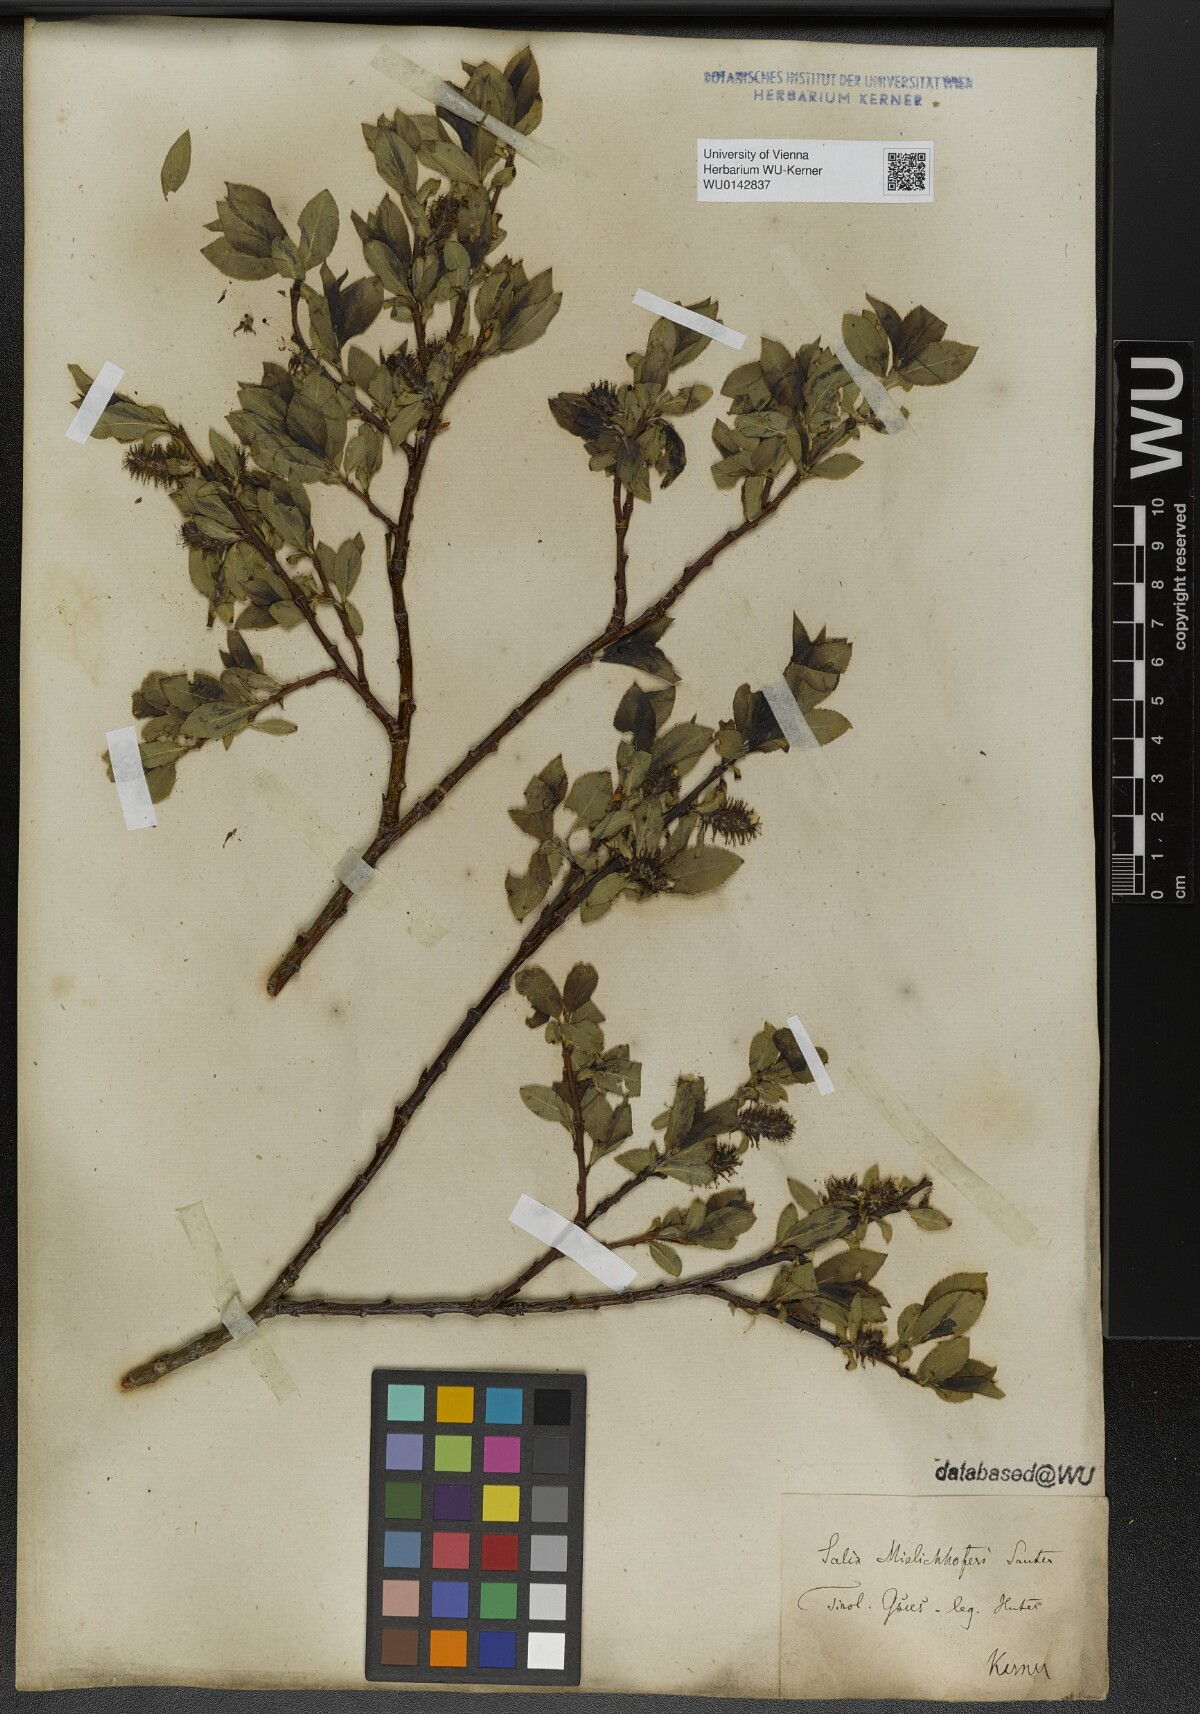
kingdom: Plantae
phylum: Tracheophyta
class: Magnoliopsida
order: Malpighiales
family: Salicaceae
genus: Salix
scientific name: Salix mielichhoferi
